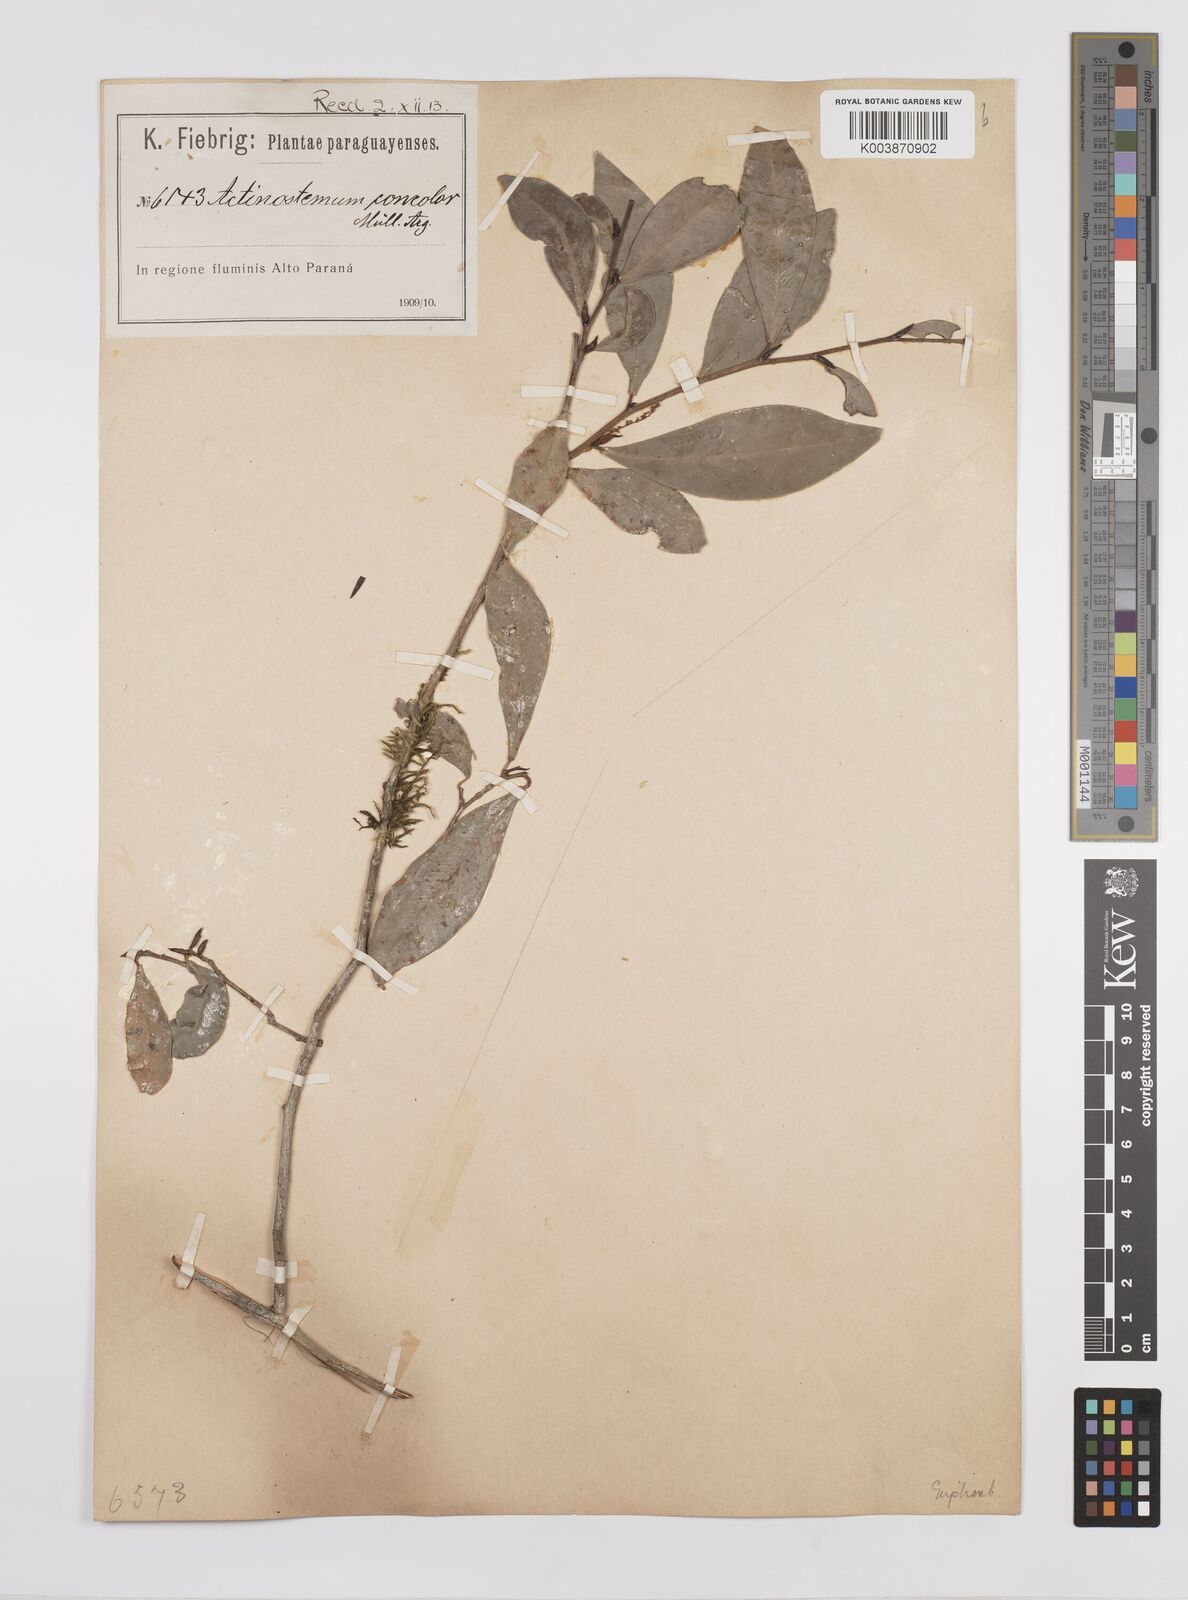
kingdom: Plantae
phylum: Tracheophyta
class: Magnoliopsida
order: Malpighiales
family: Euphorbiaceae
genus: Actinostemon
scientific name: Actinostemon concolor
